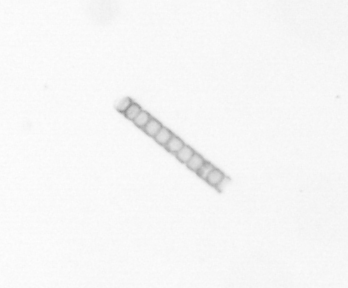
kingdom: Chromista
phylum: Ochrophyta
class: Bacillariophyceae
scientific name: Bacillariophyceae
